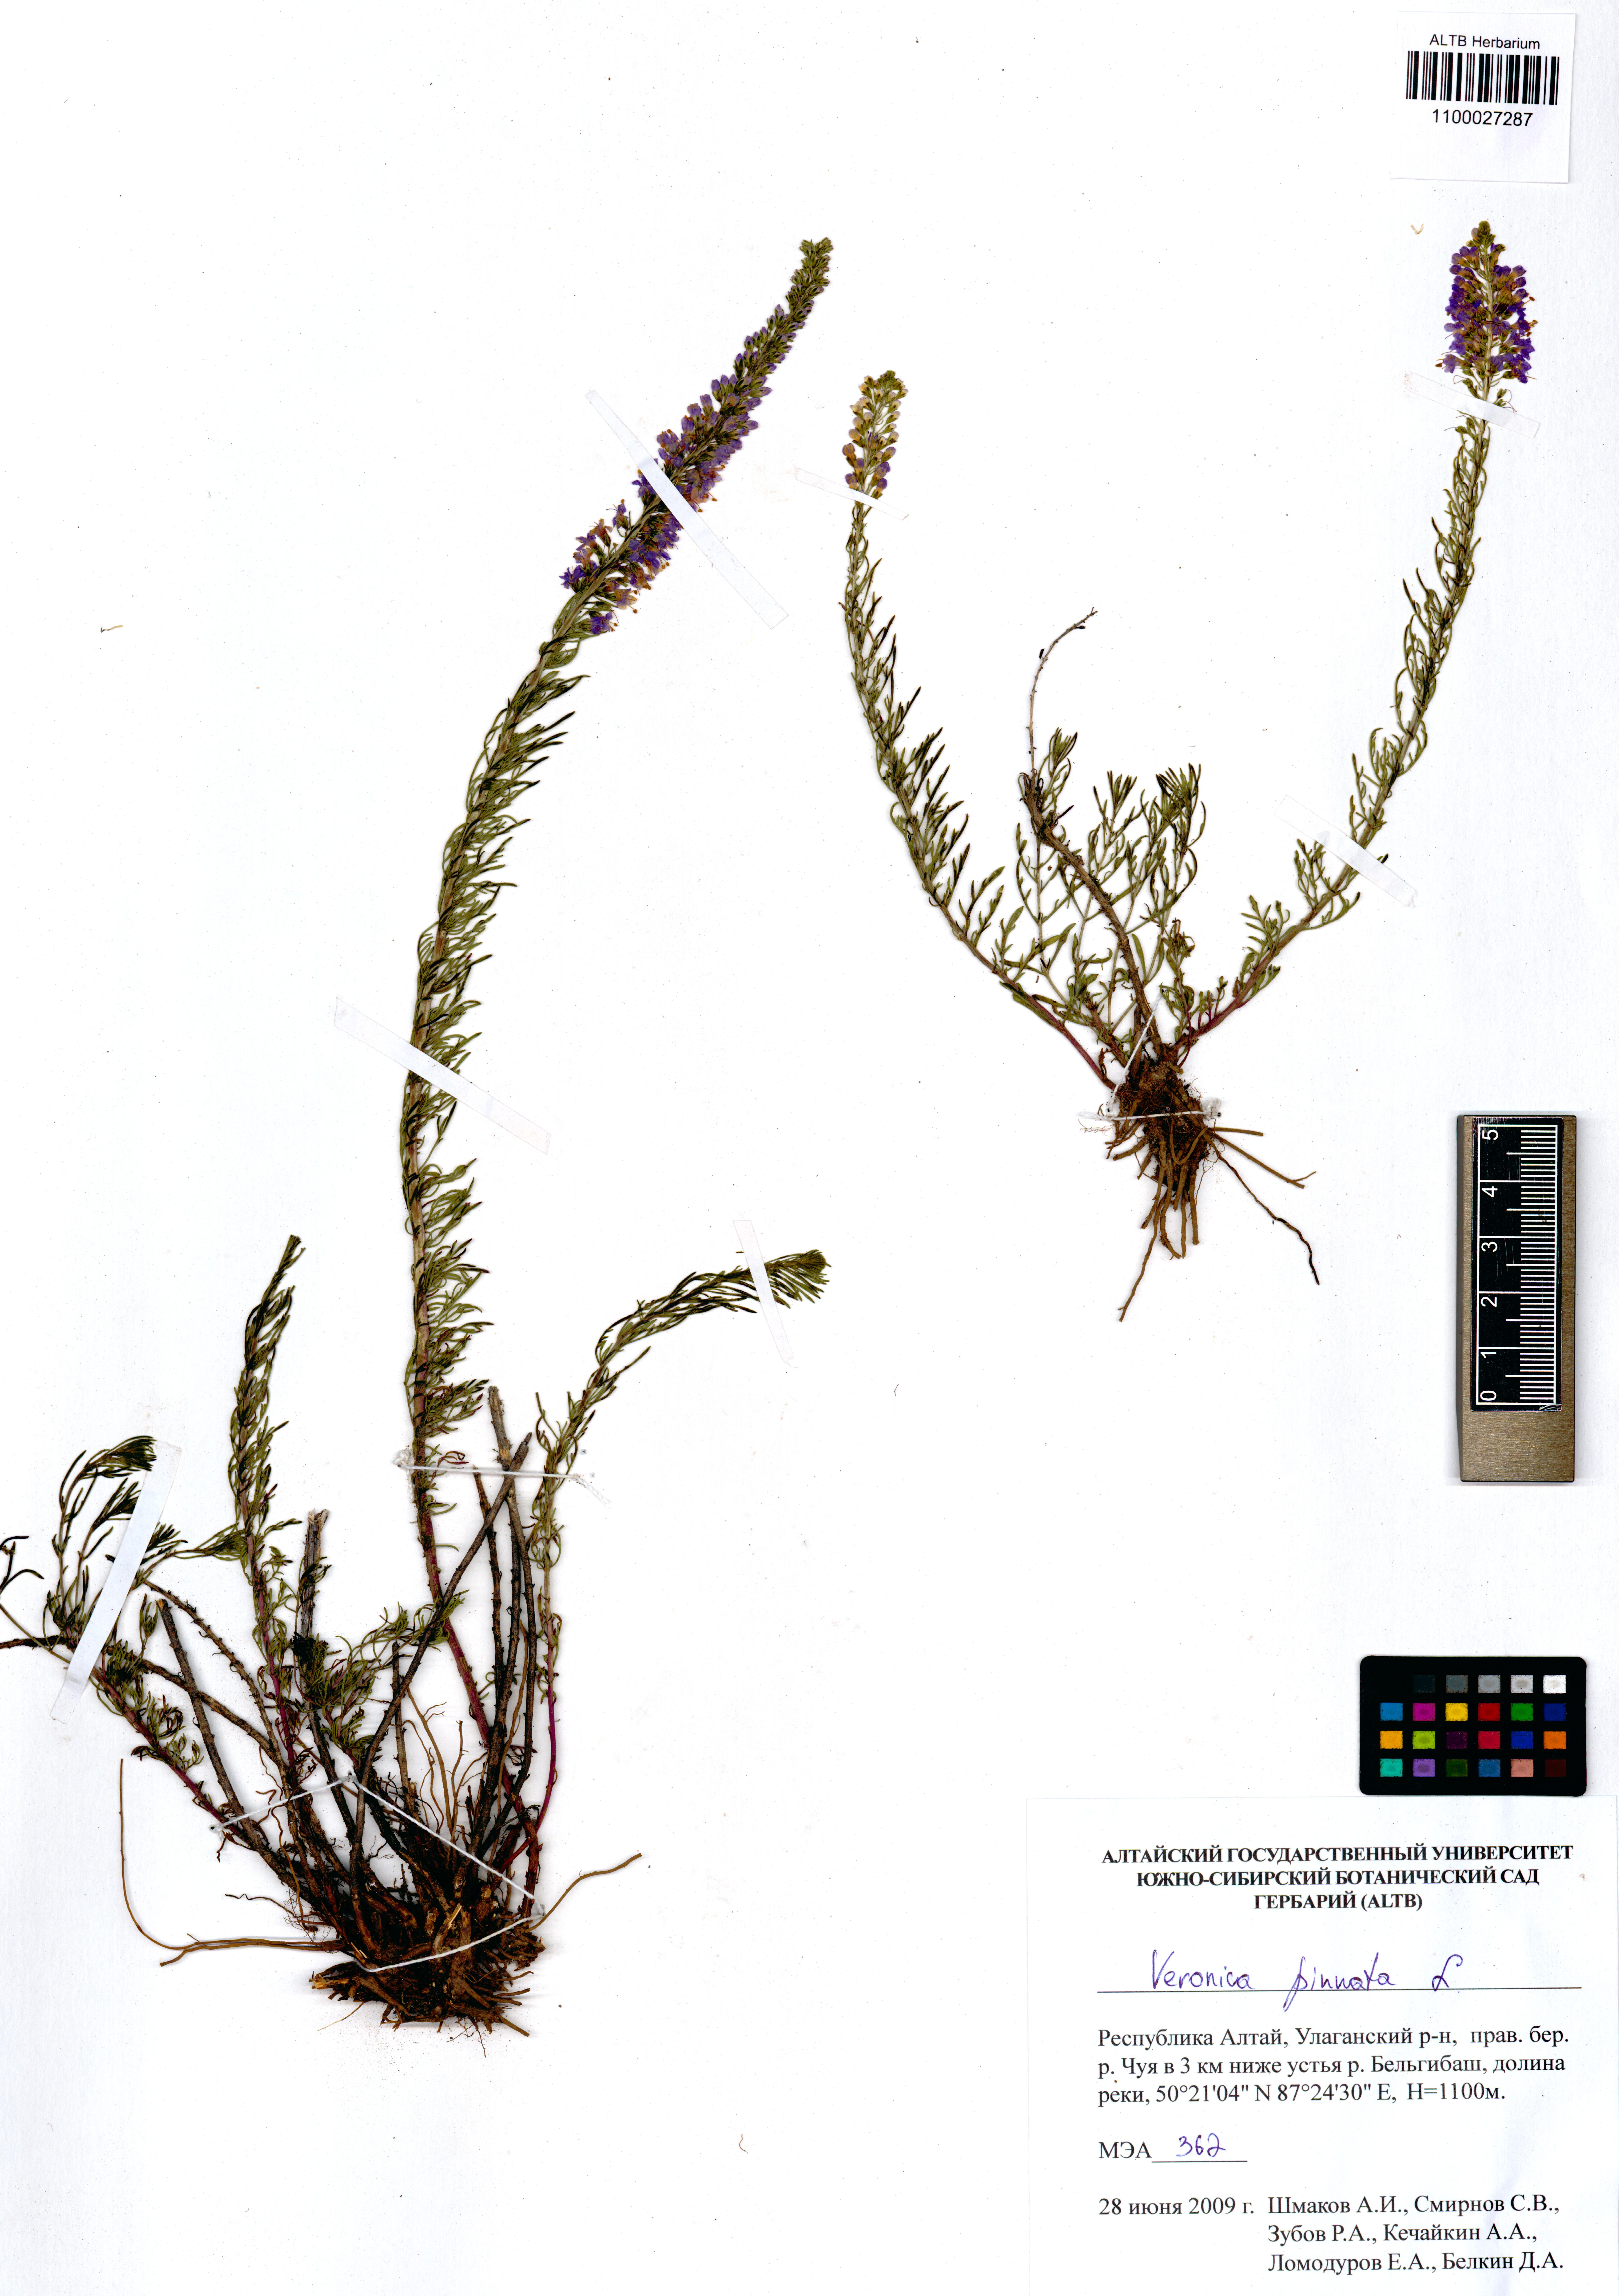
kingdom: Plantae
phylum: Tracheophyta
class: Magnoliopsida
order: Lamiales
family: Plantaginaceae
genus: Veronica
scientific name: Veronica pinnata
